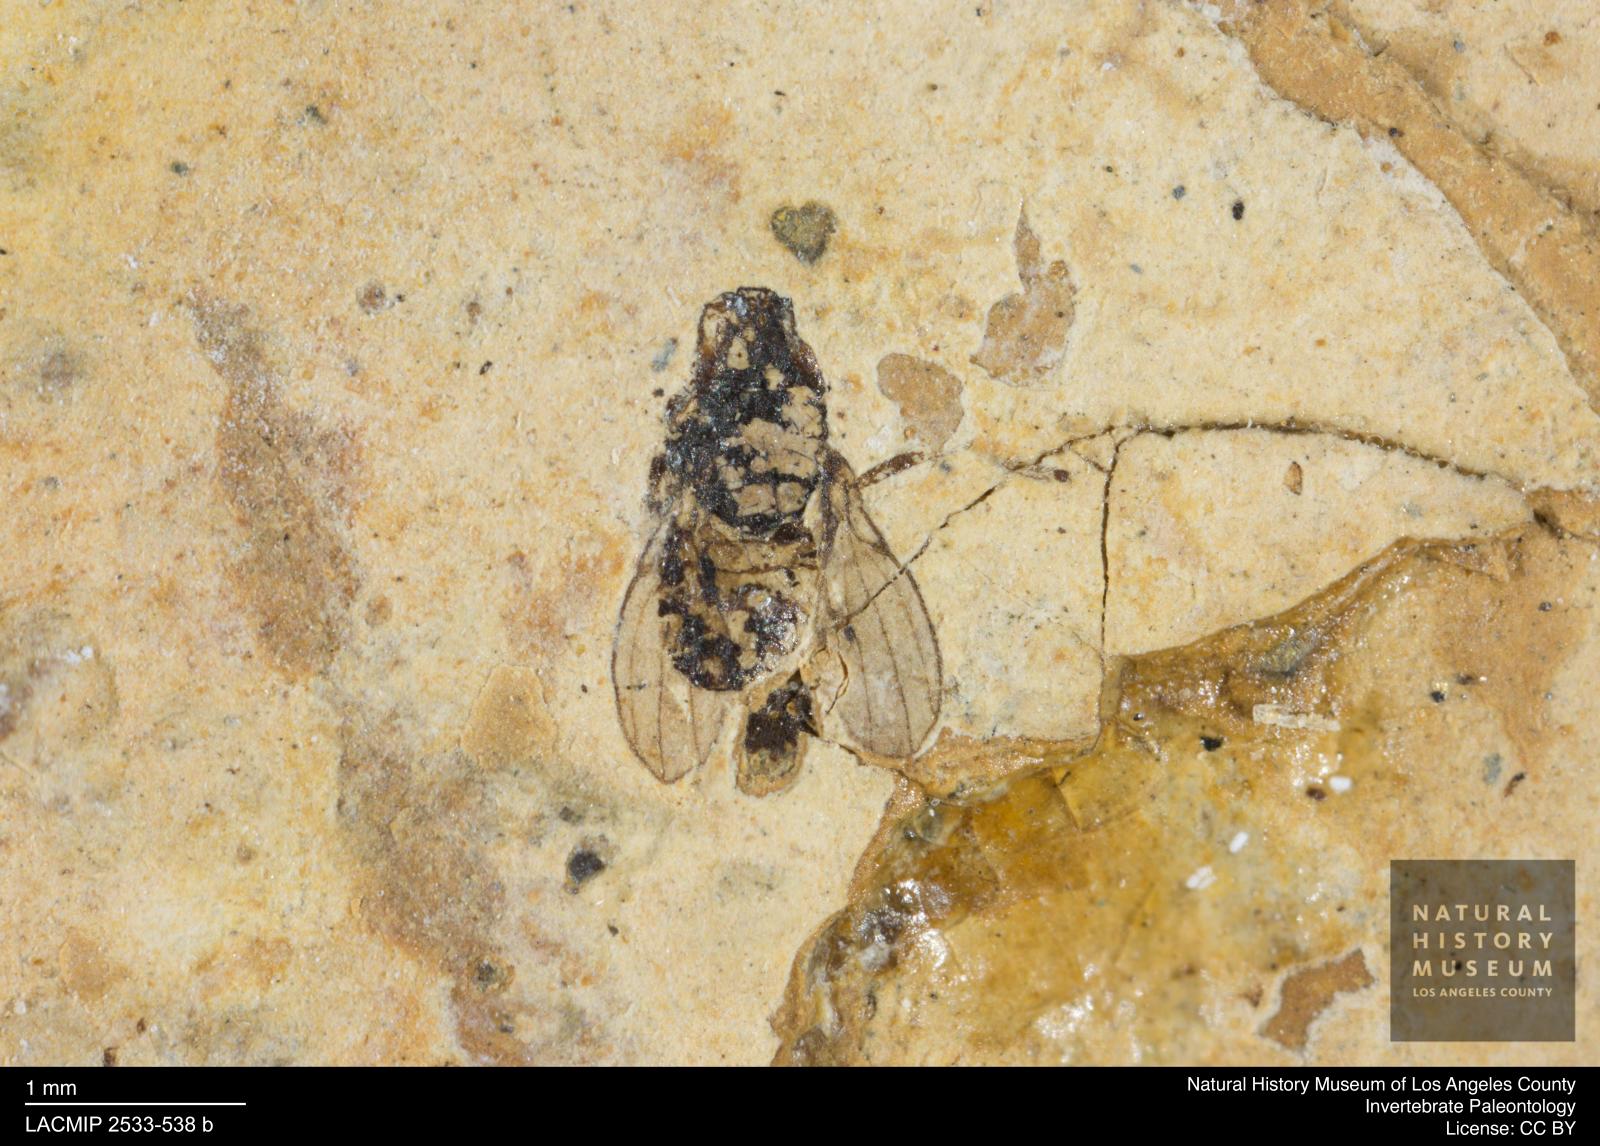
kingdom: Animalia
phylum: Arthropoda
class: Insecta
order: Diptera
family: Opomyzidae
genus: Opomyza
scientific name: Opomyza venusta
